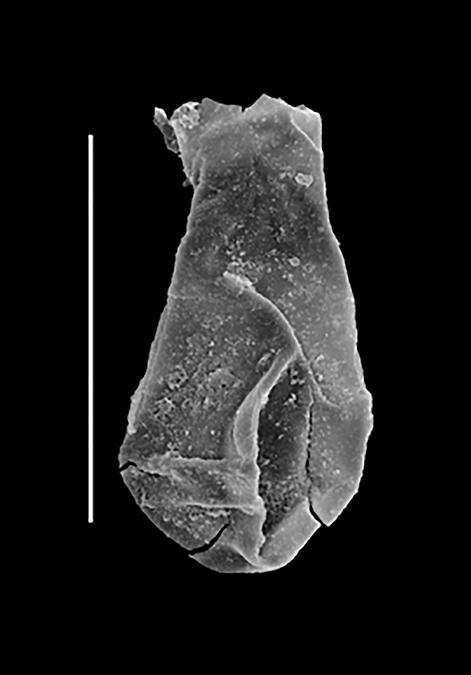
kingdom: Animalia
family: Lagenochitinidae
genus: Lagenochitina
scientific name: Lagenochitina
